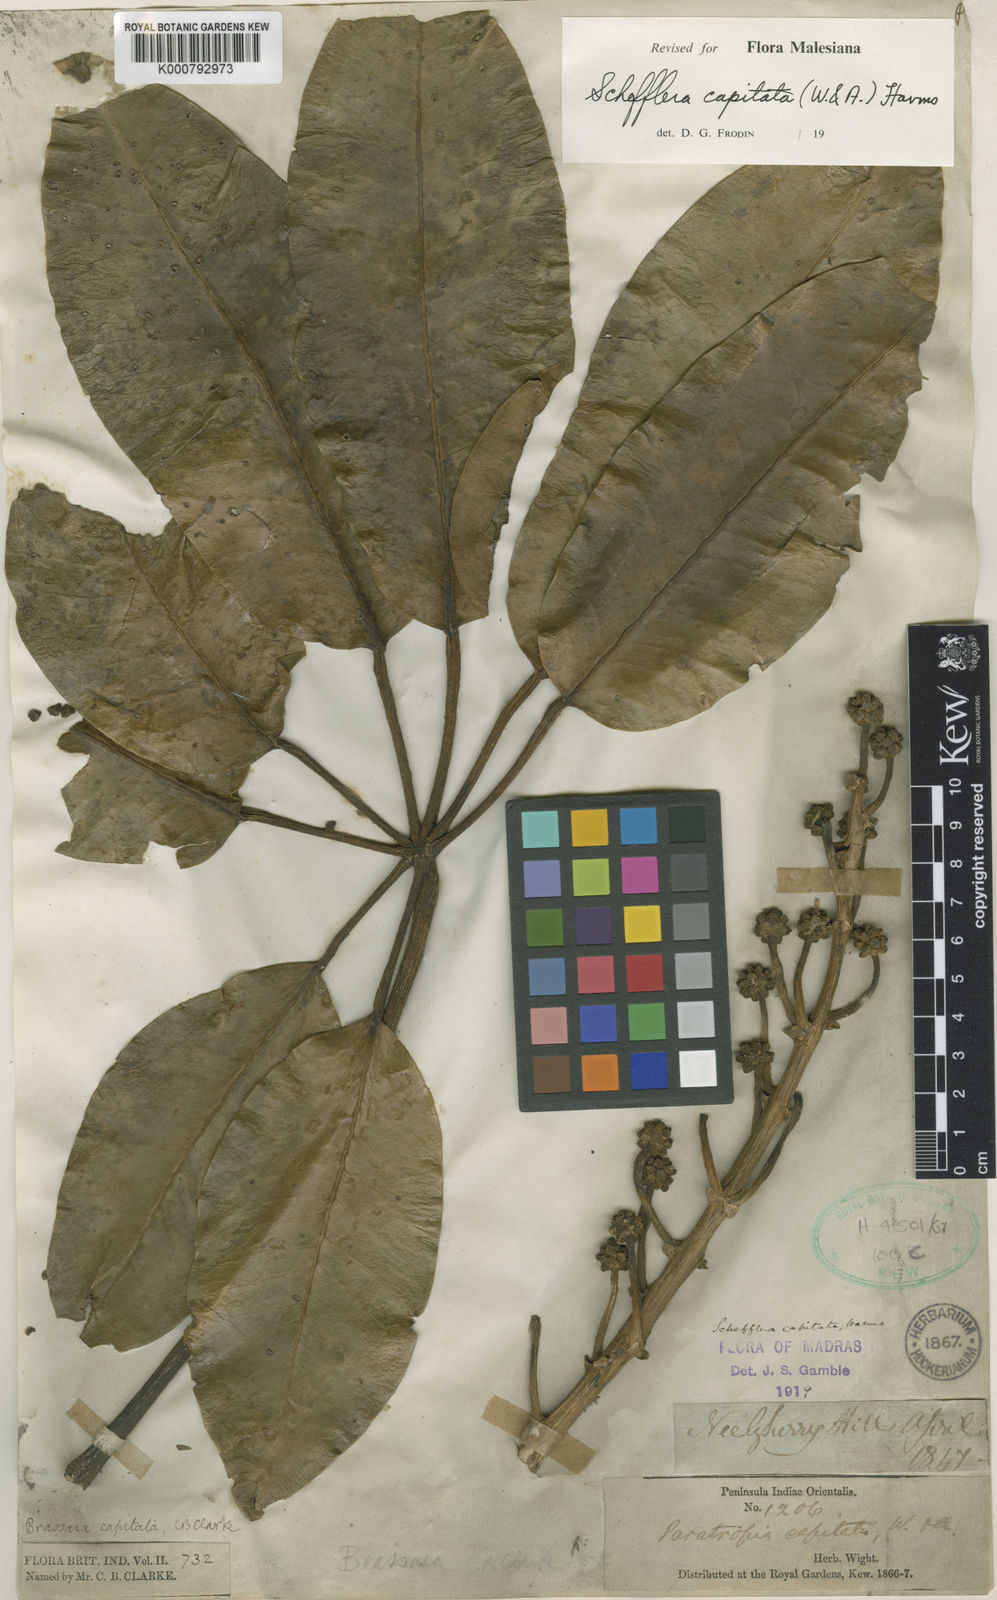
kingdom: Plantae
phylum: Tracheophyta
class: Magnoliopsida
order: Apiales
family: Araliaceae
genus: Heptapleurum
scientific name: Heptapleurum capitatum
